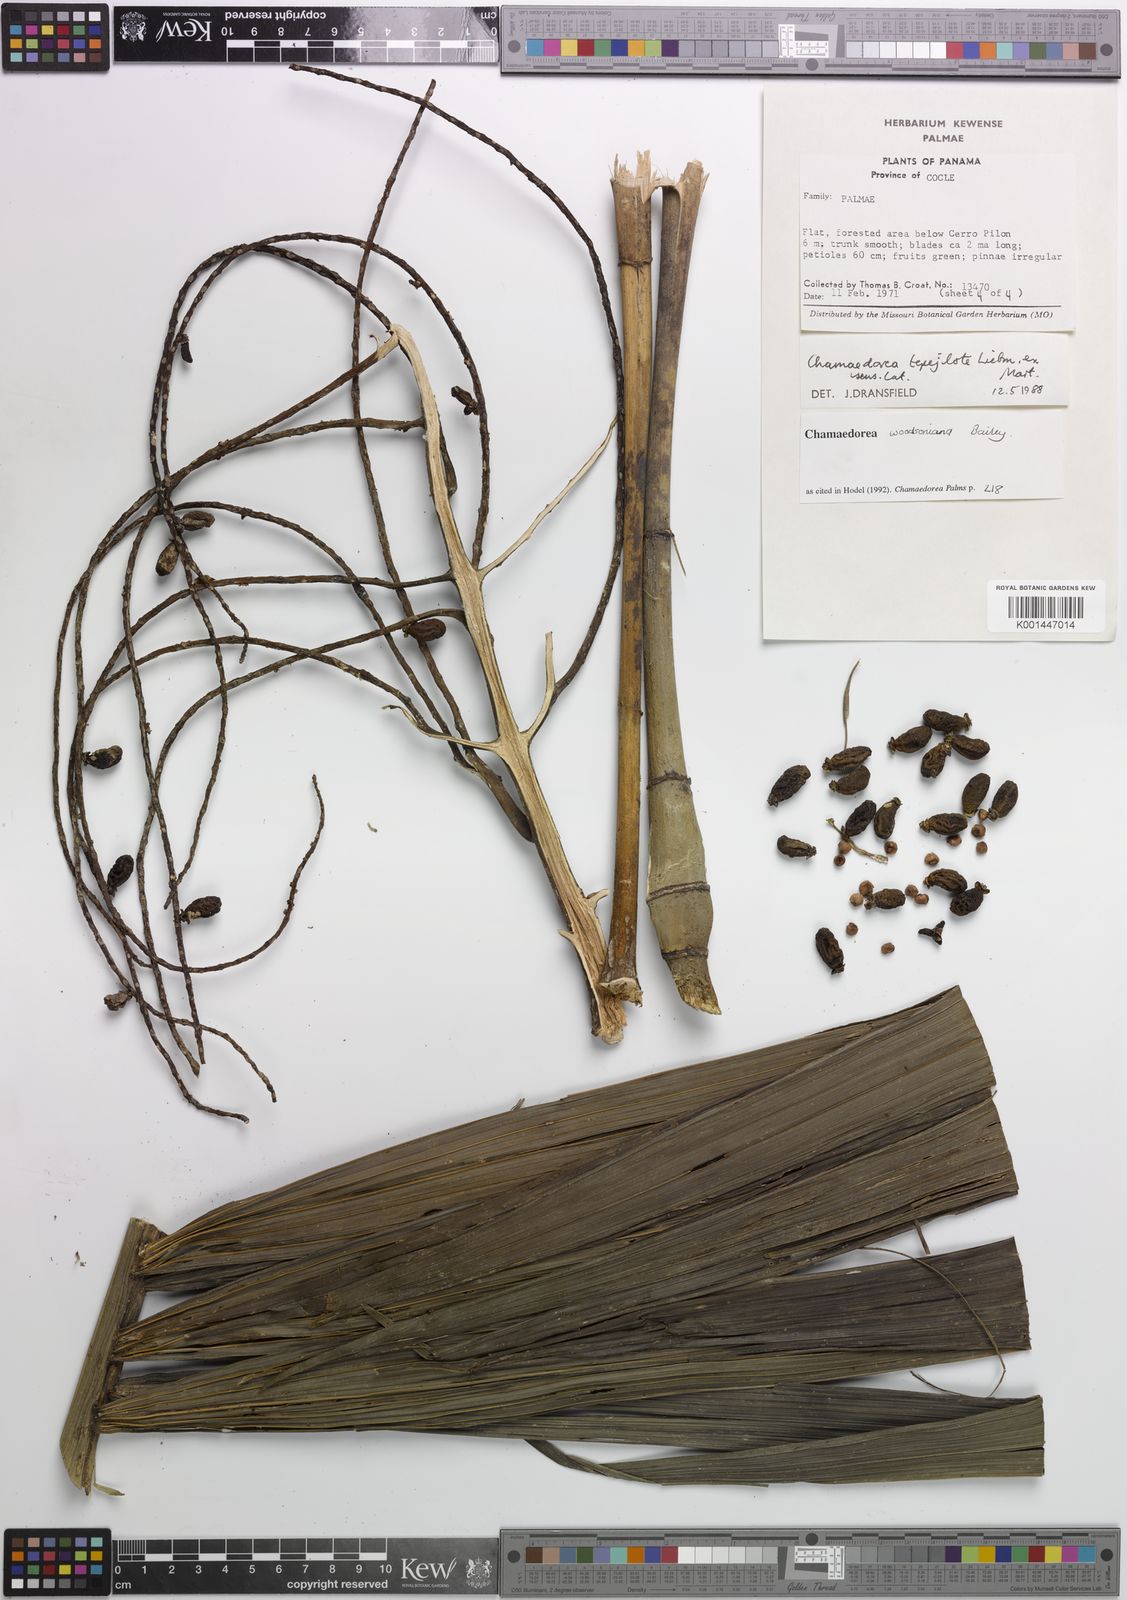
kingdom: Plantae
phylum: Tracheophyta
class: Liliopsida
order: Arecales
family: Arecaceae
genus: Chamaedorea
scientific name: Chamaedorea woodsoniana
